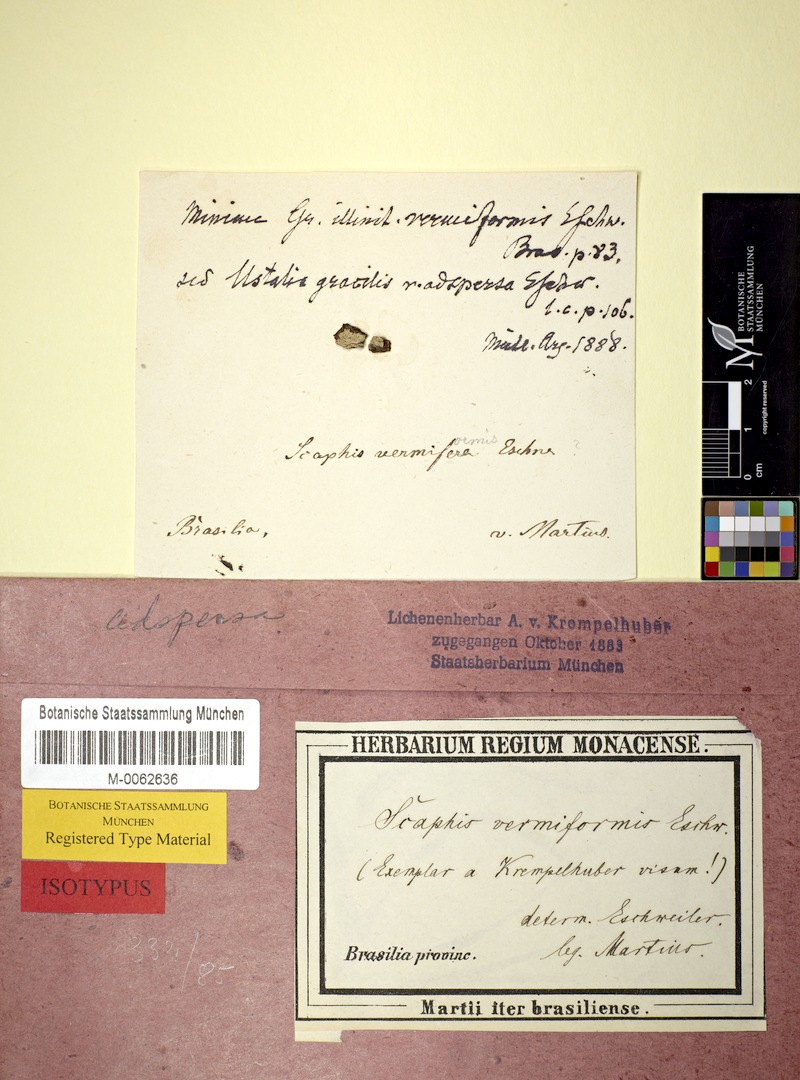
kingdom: Fungi
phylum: Ascomycota
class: Lecanoromycetes
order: Ostropales
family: Graphidaceae
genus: Graphis
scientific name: Graphis
